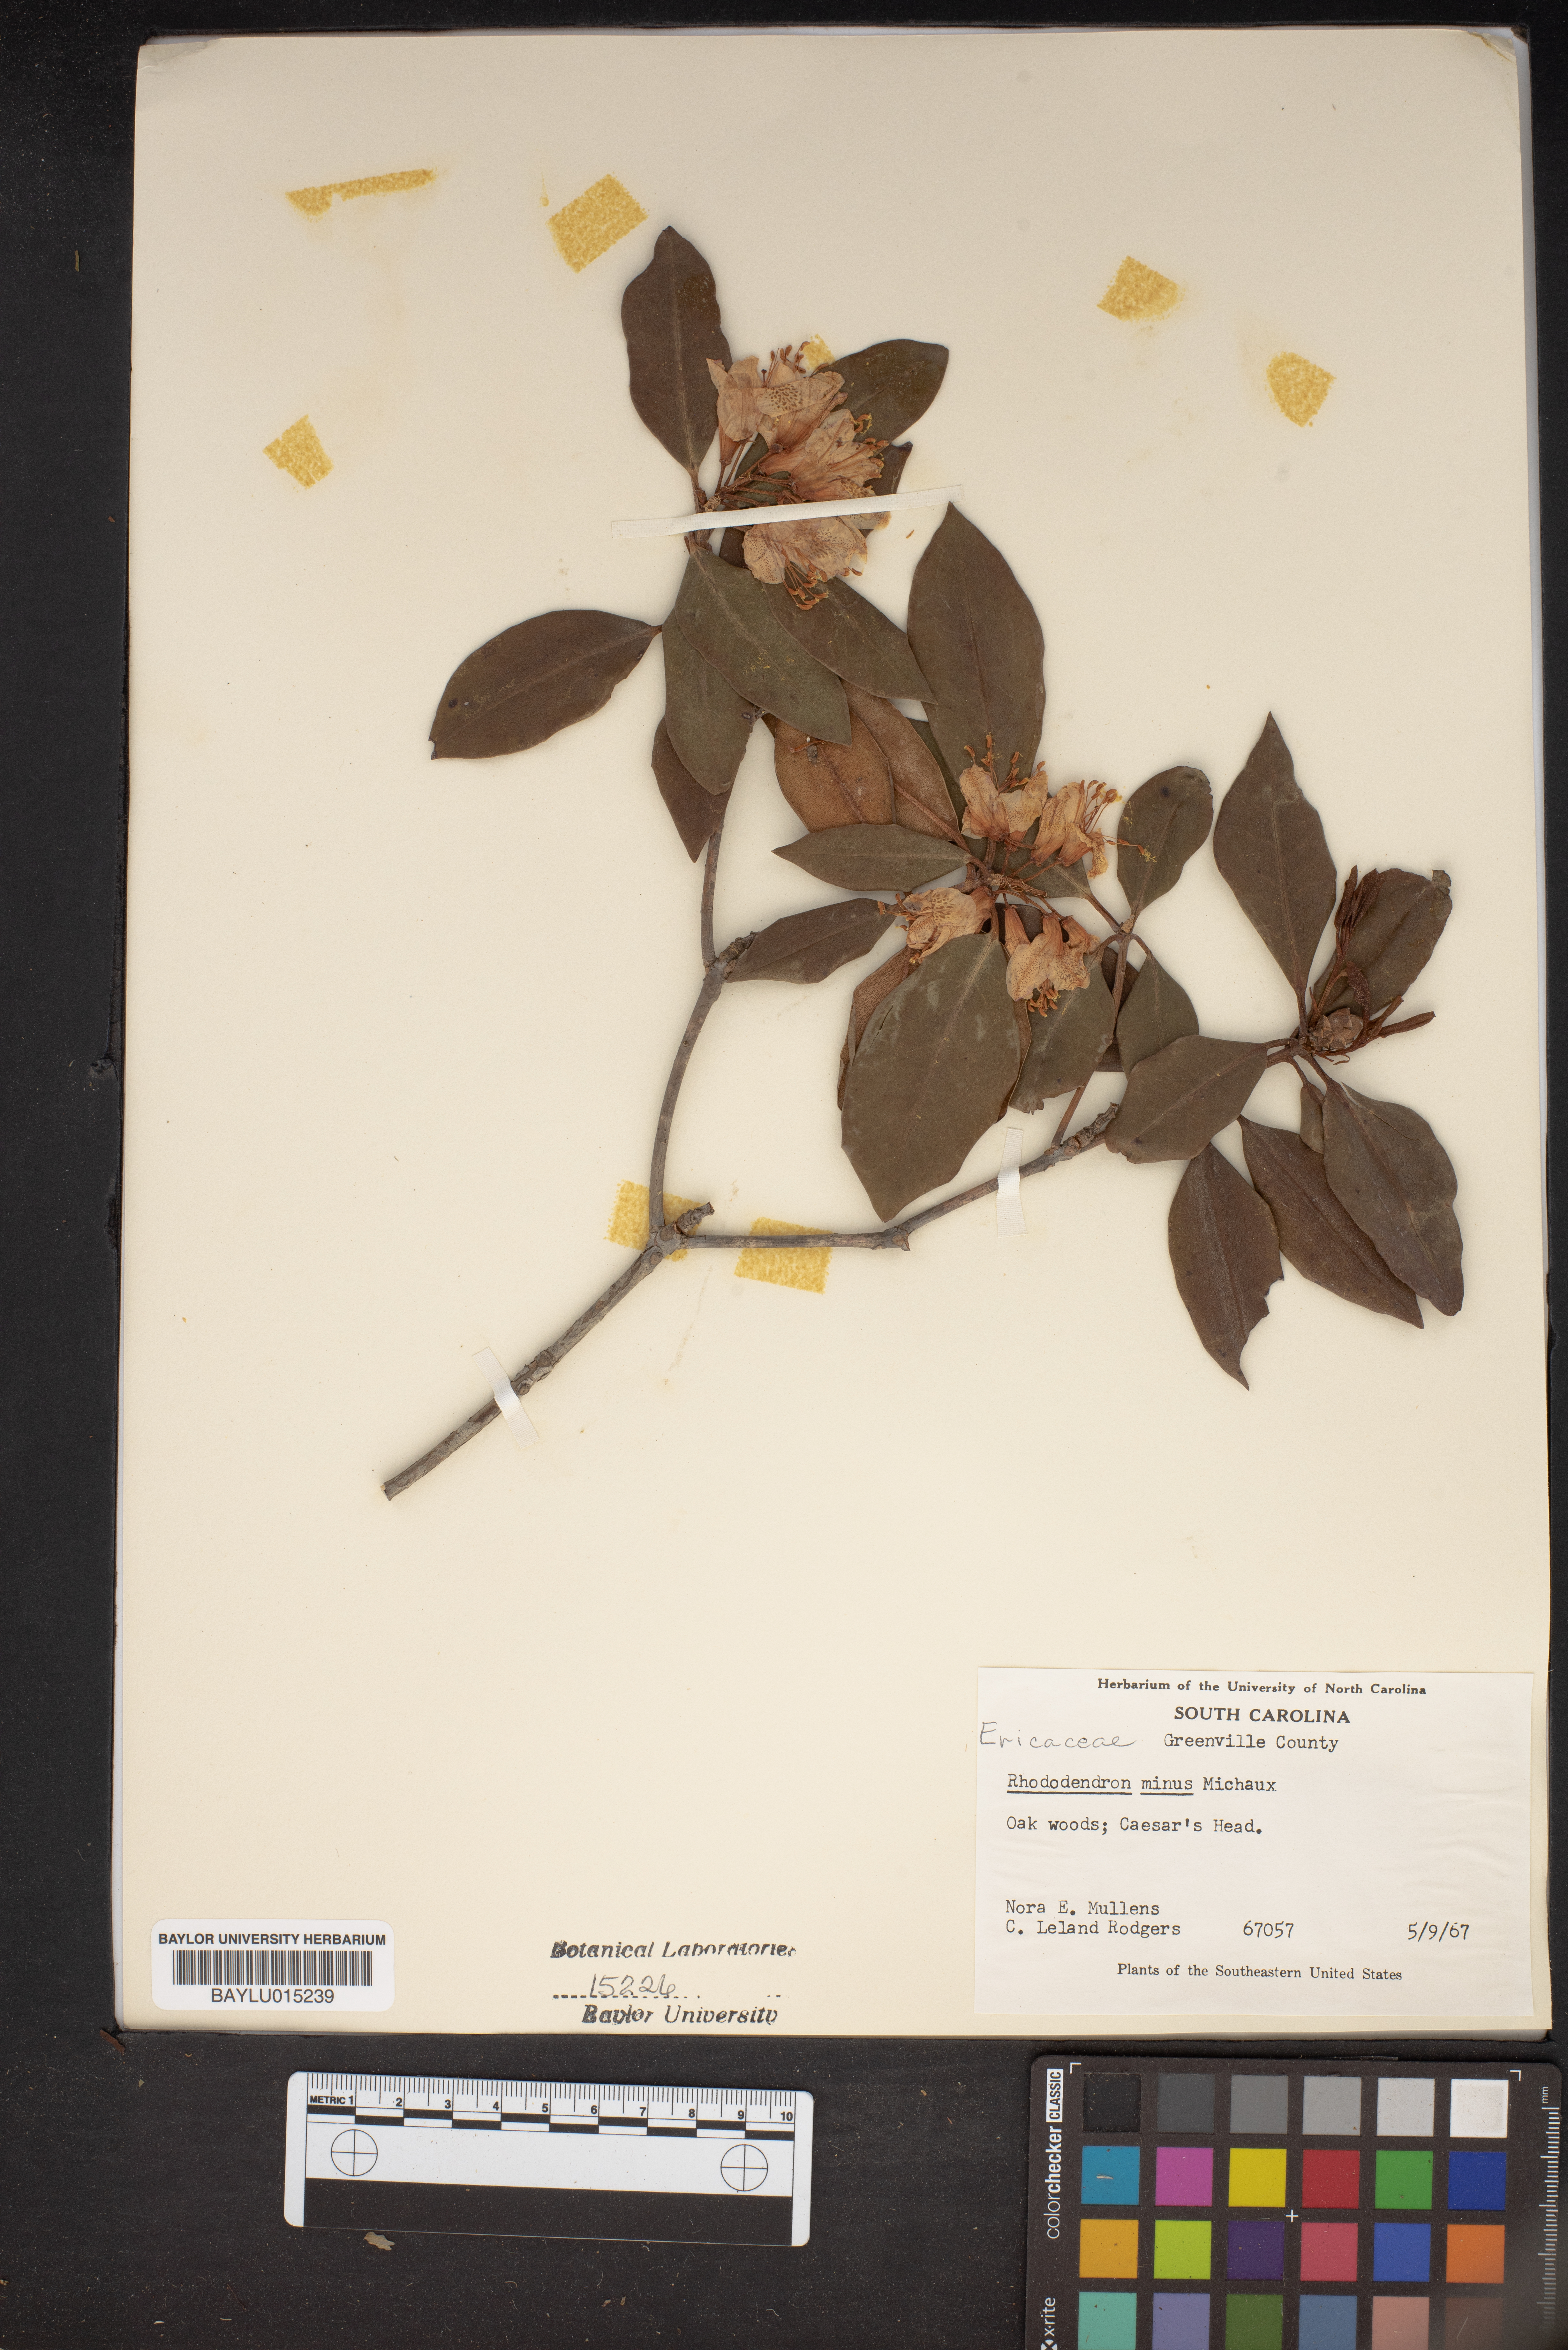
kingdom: Plantae
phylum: Tracheophyta
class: Magnoliopsida
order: Ericales
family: Ericaceae
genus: Rhododendron
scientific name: Rhododendron minus
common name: Piedmont rhododendron
